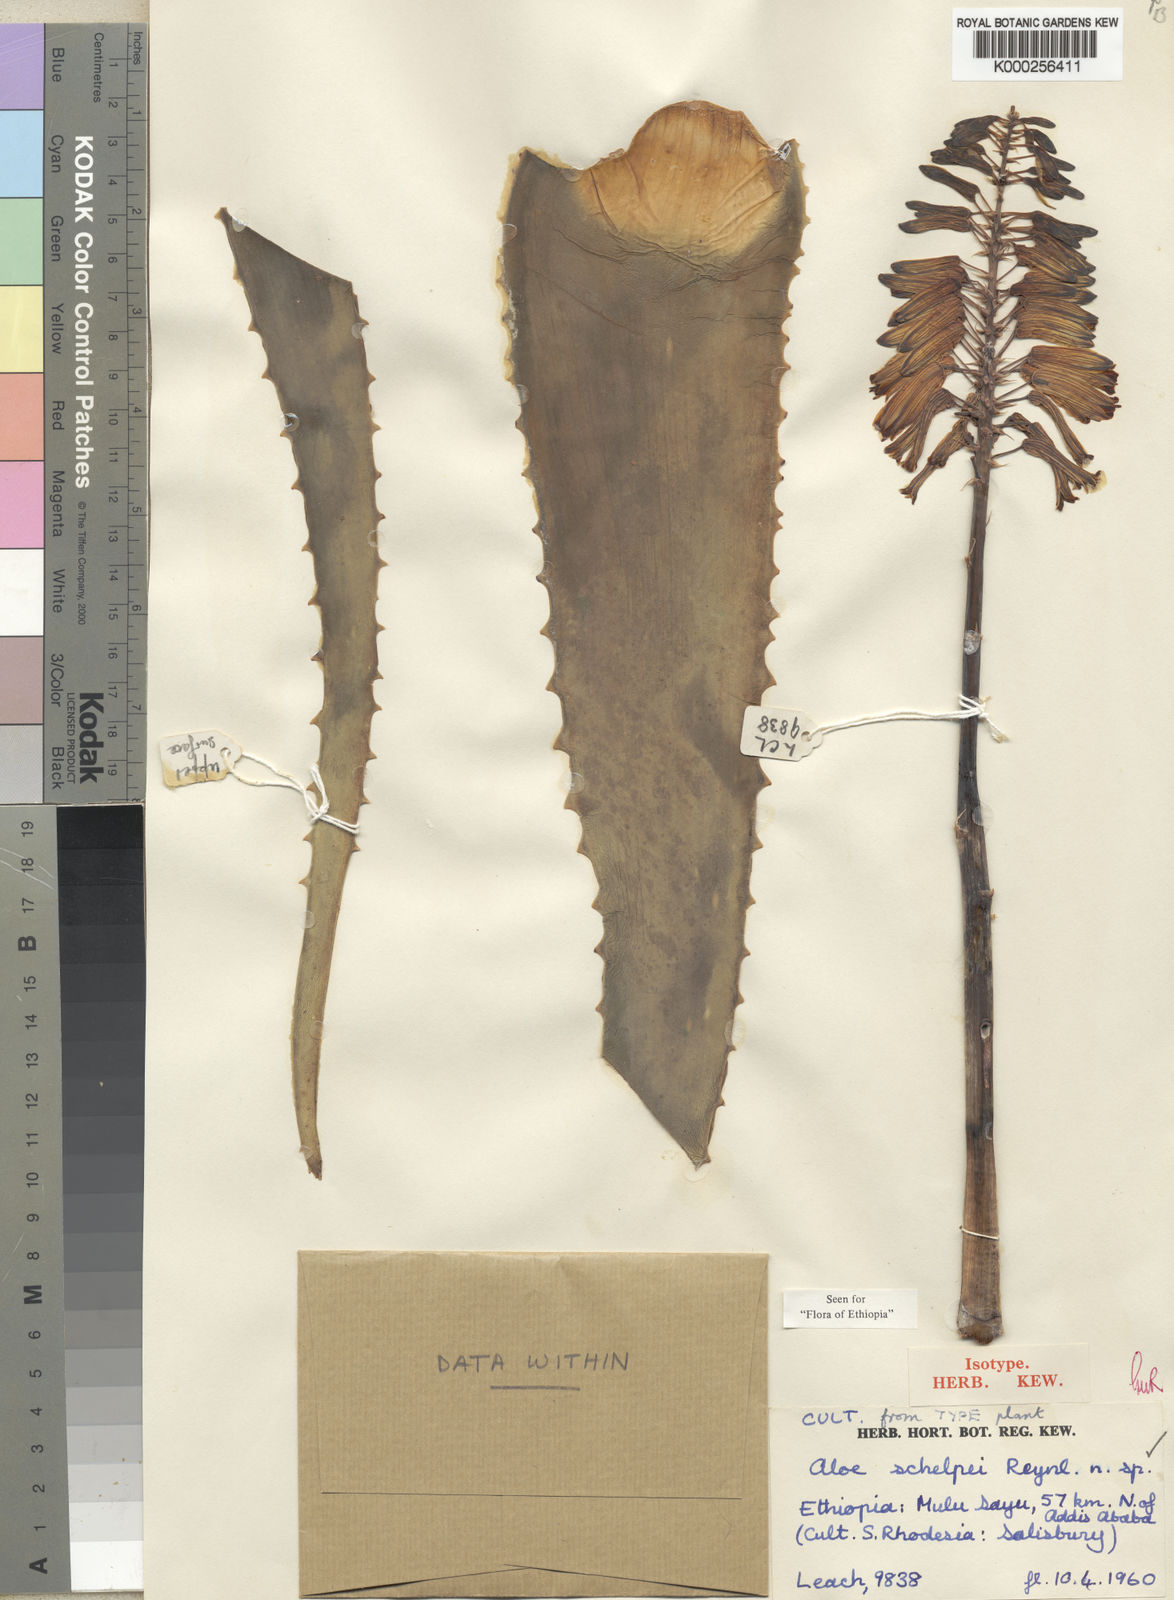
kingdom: Plantae
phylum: Tracheophyta
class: Liliopsida
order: Asparagales
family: Asphodelaceae
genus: Aloe
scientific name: Aloe schelpei
